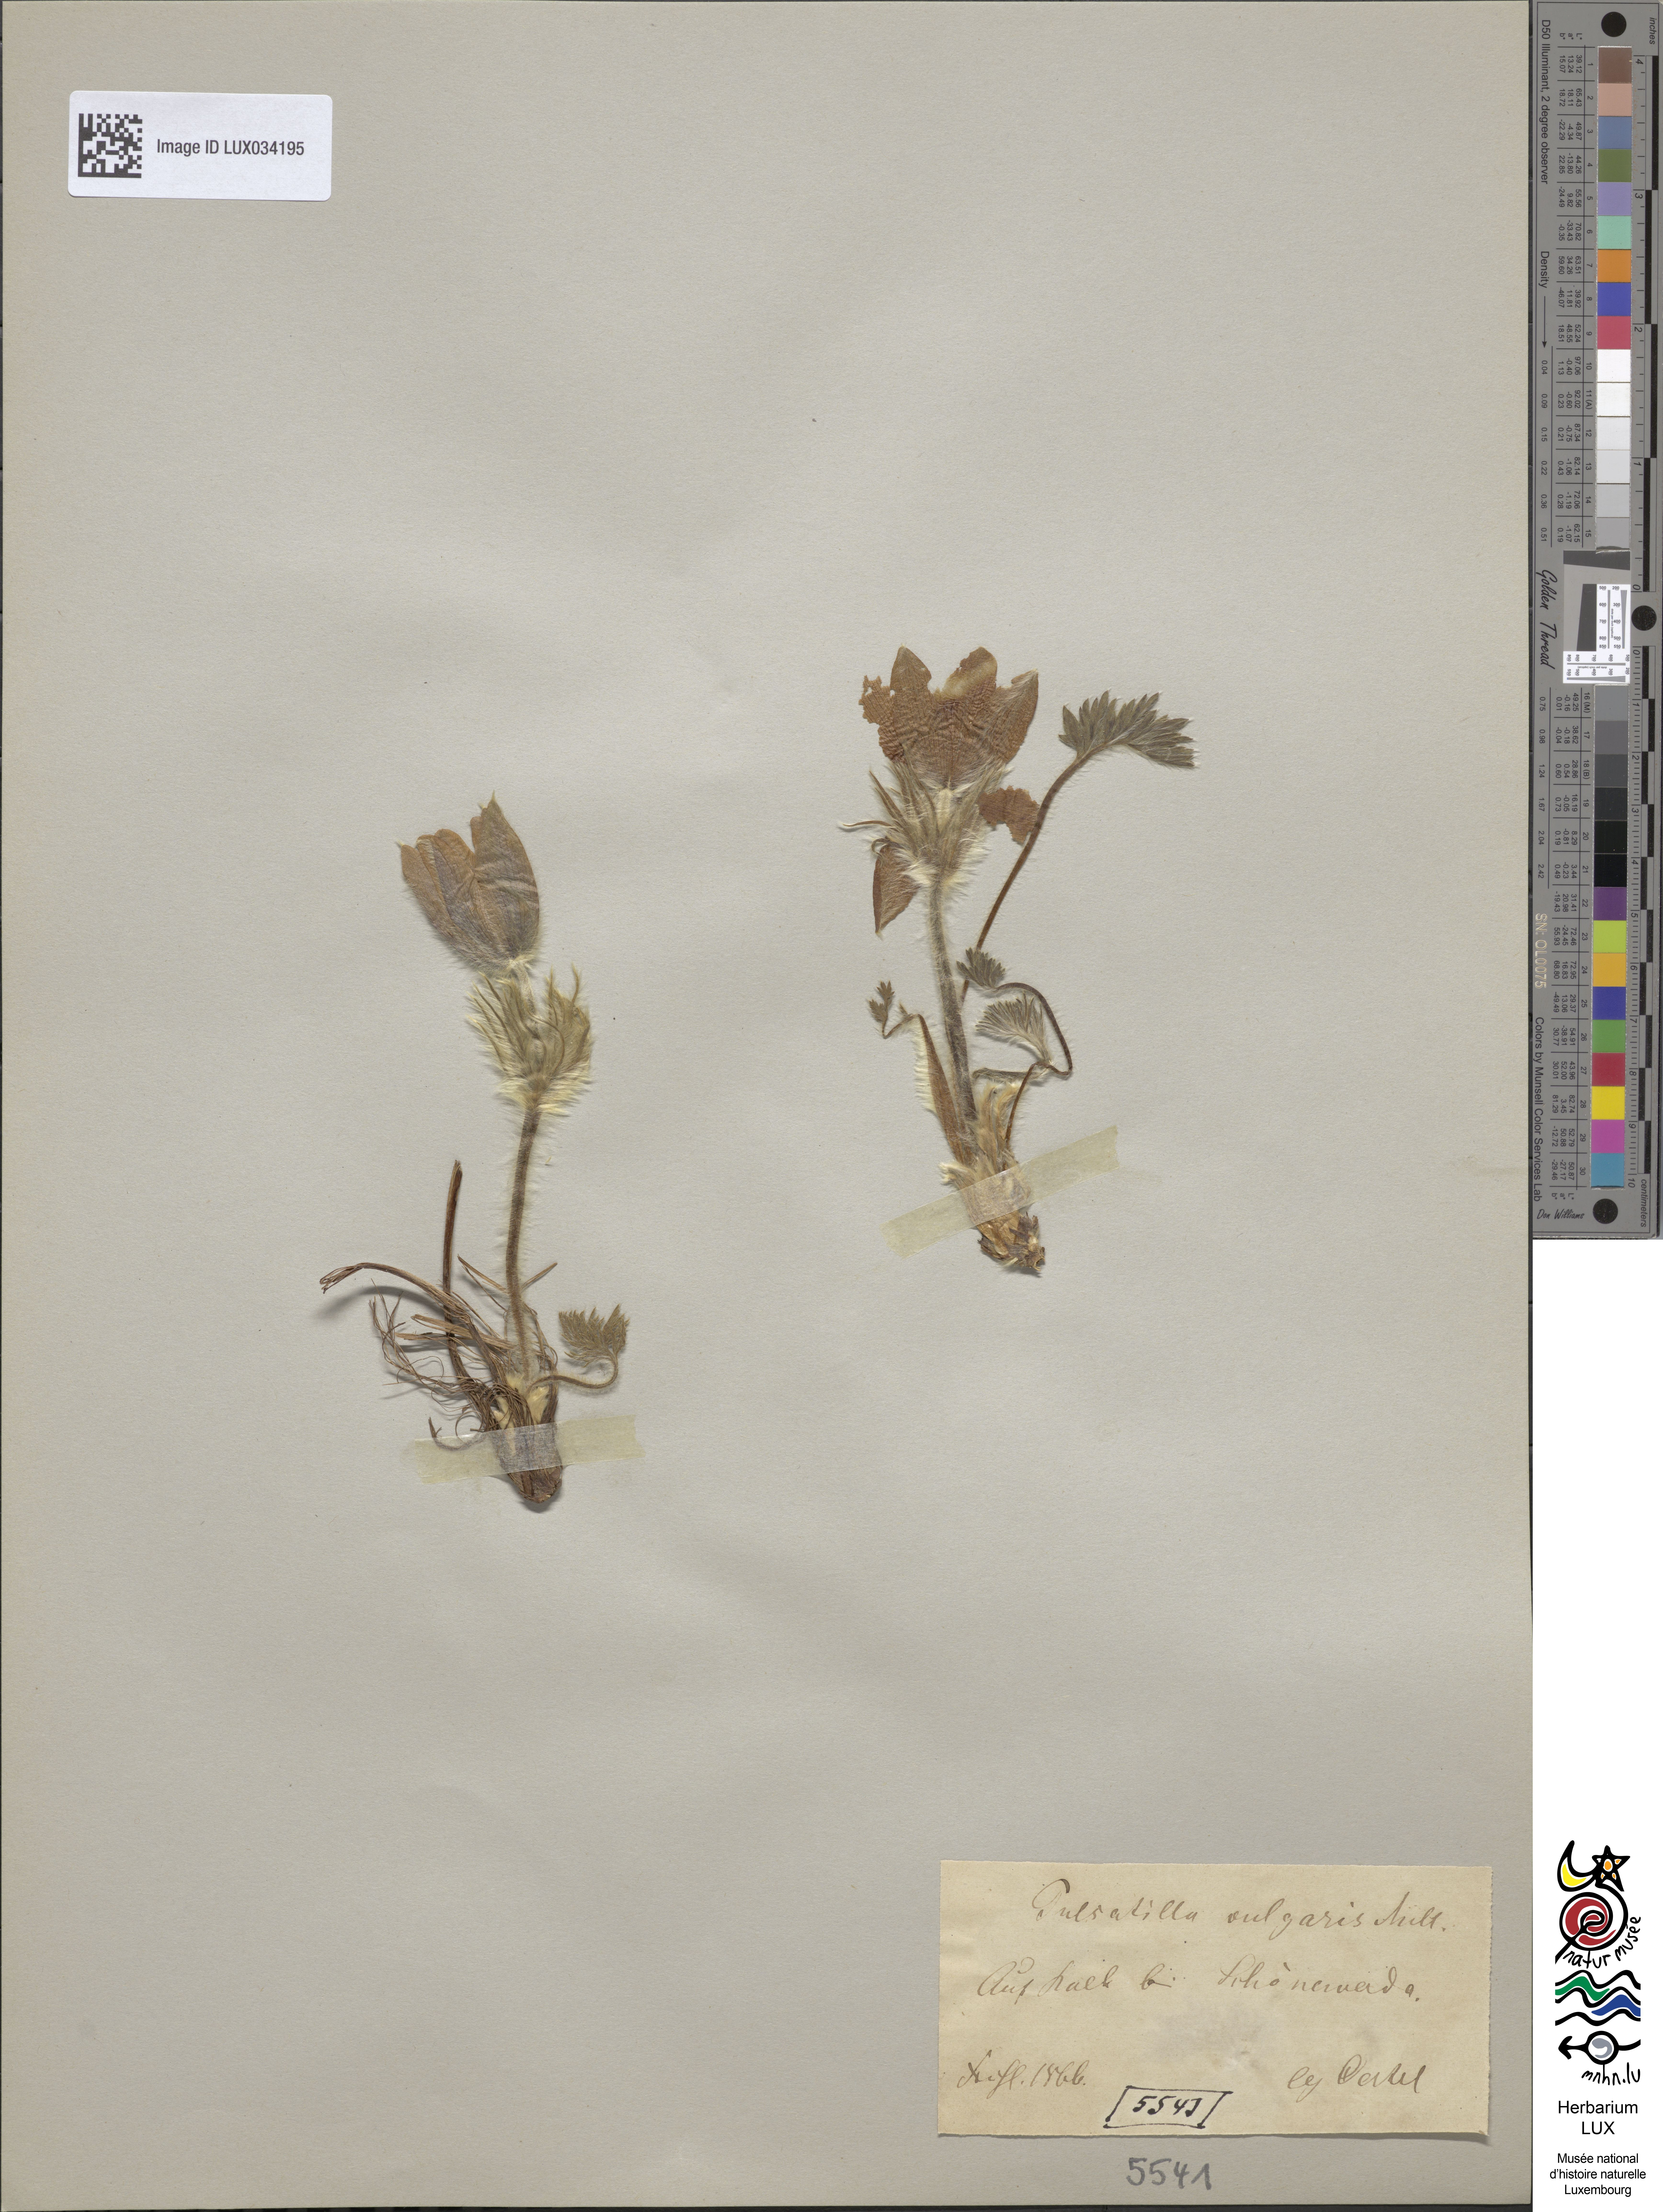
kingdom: Plantae
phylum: Tracheophyta
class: Magnoliopsida
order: Ranunculales
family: Ranunculaceae
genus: Pulsatilla
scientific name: Pulsatilla vulgaris
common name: Pasqueflower
